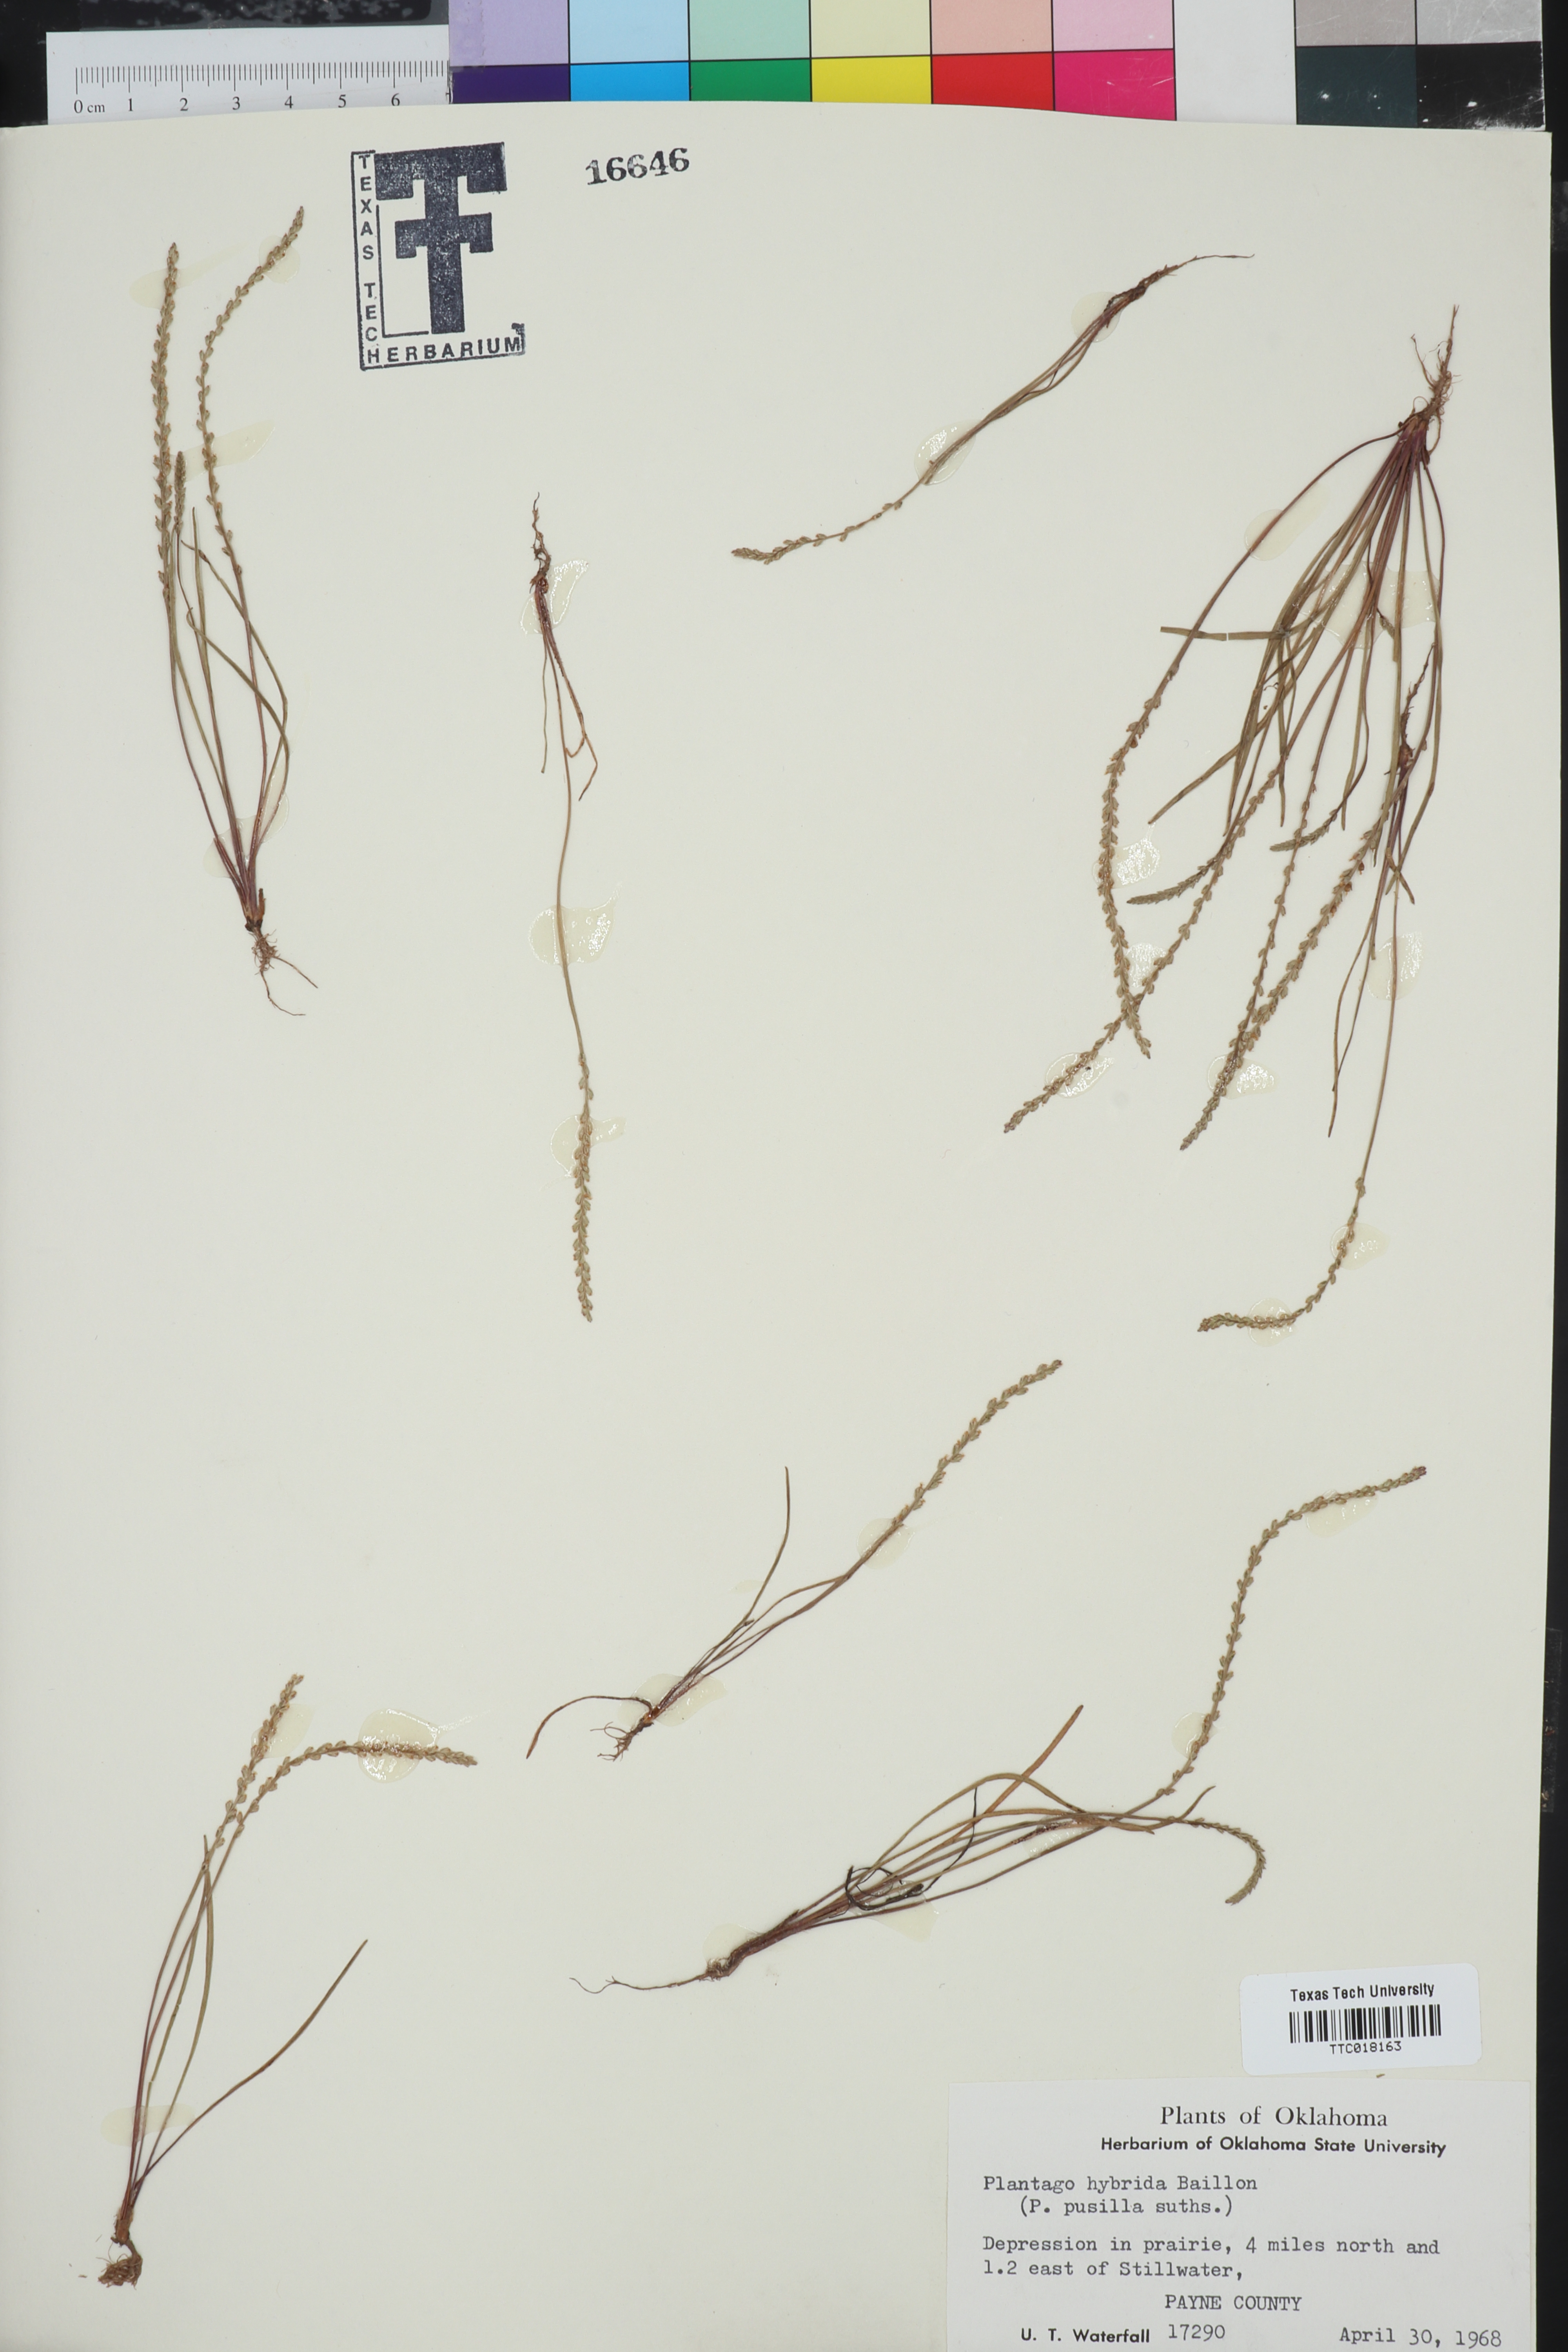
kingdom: Plantae
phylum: Tracheophyta
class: Magnoliopsida
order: Lamiales
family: Plantaginaceae
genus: Plantago
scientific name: Plantago pusilla
